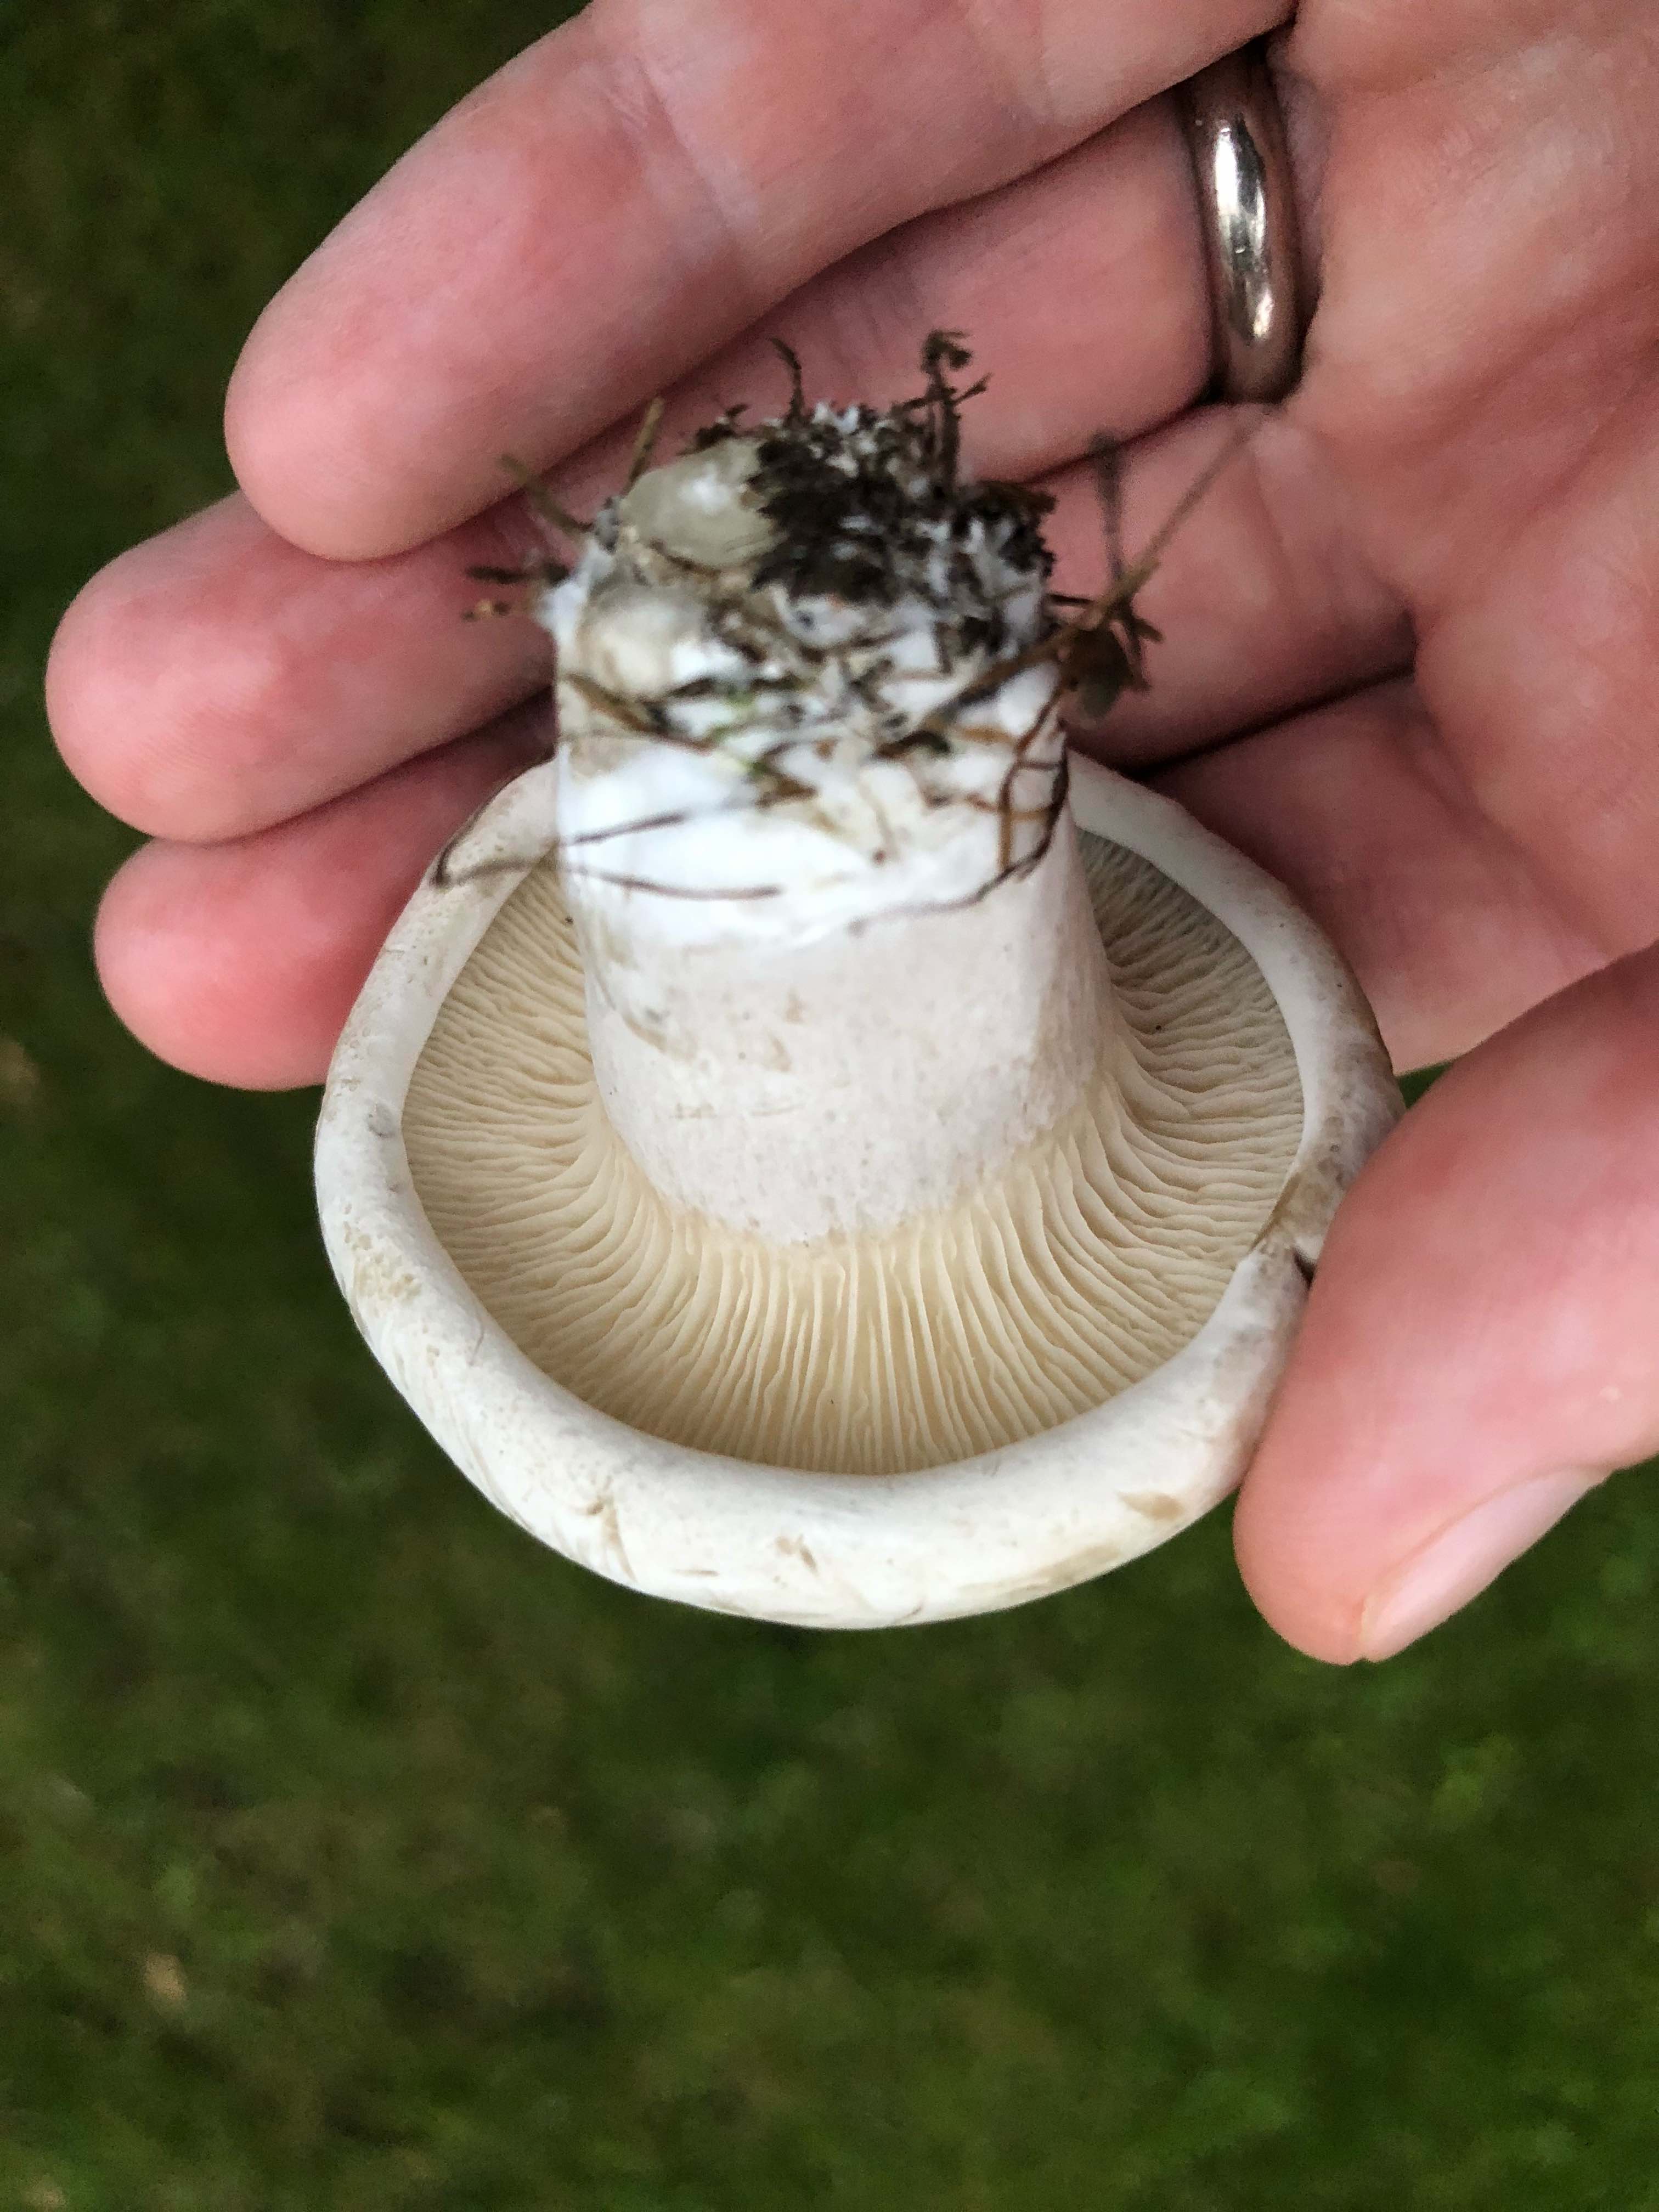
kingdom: Fungi
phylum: Basidiomycota
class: Agaricomycetes
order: Agaricales
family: Entolomataceae
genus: Clitopilus
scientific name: Clitopilus prunulus
